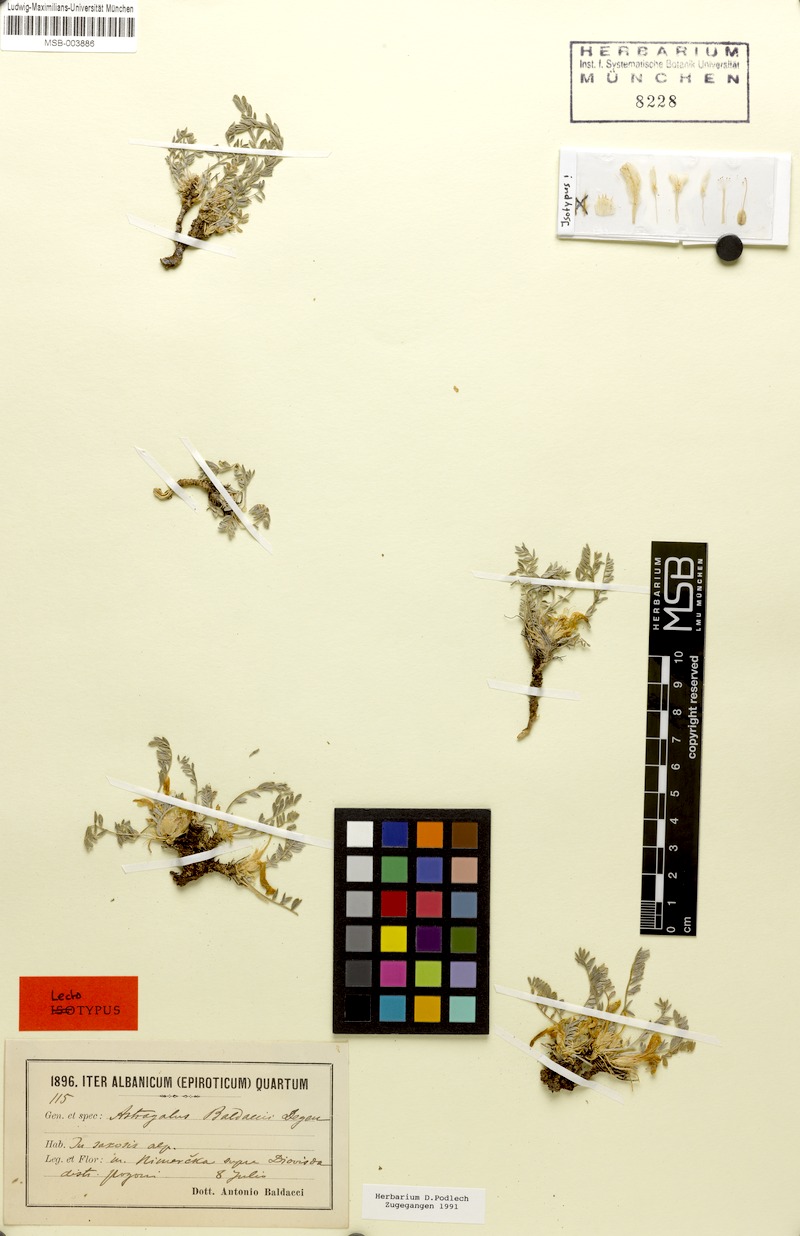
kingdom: Plantae
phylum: Tracheophyta
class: Magnoliopsida
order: Fabales
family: Fabaceae
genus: Astragalus
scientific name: Astragalus baldaccii
